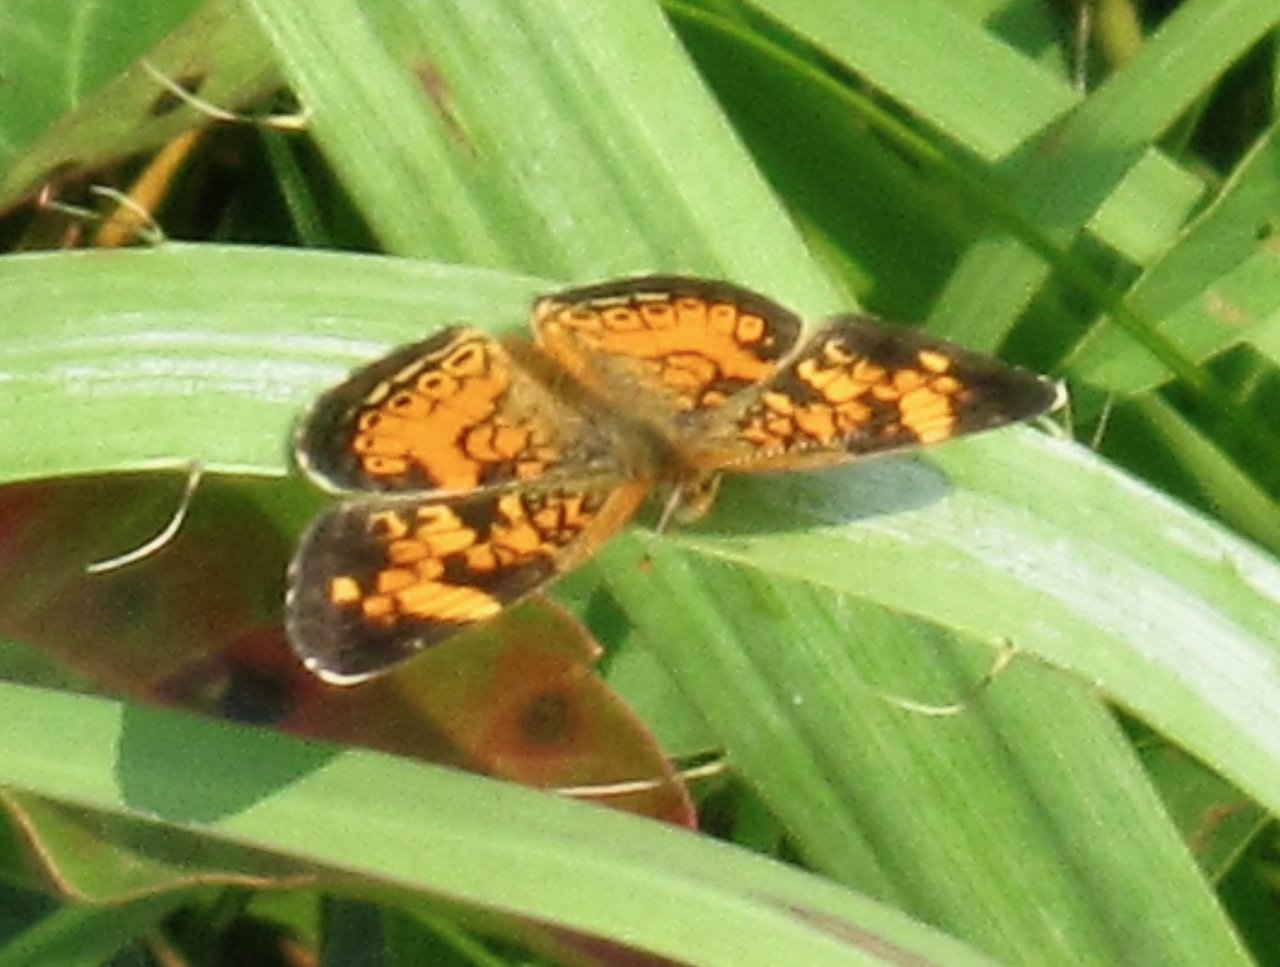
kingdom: Animalia
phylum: Arthropoda
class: Insecta
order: Lepidoptera
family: Nymphalidae
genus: Phyciodes
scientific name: Phyciodes tharos
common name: Pearl Crescent
